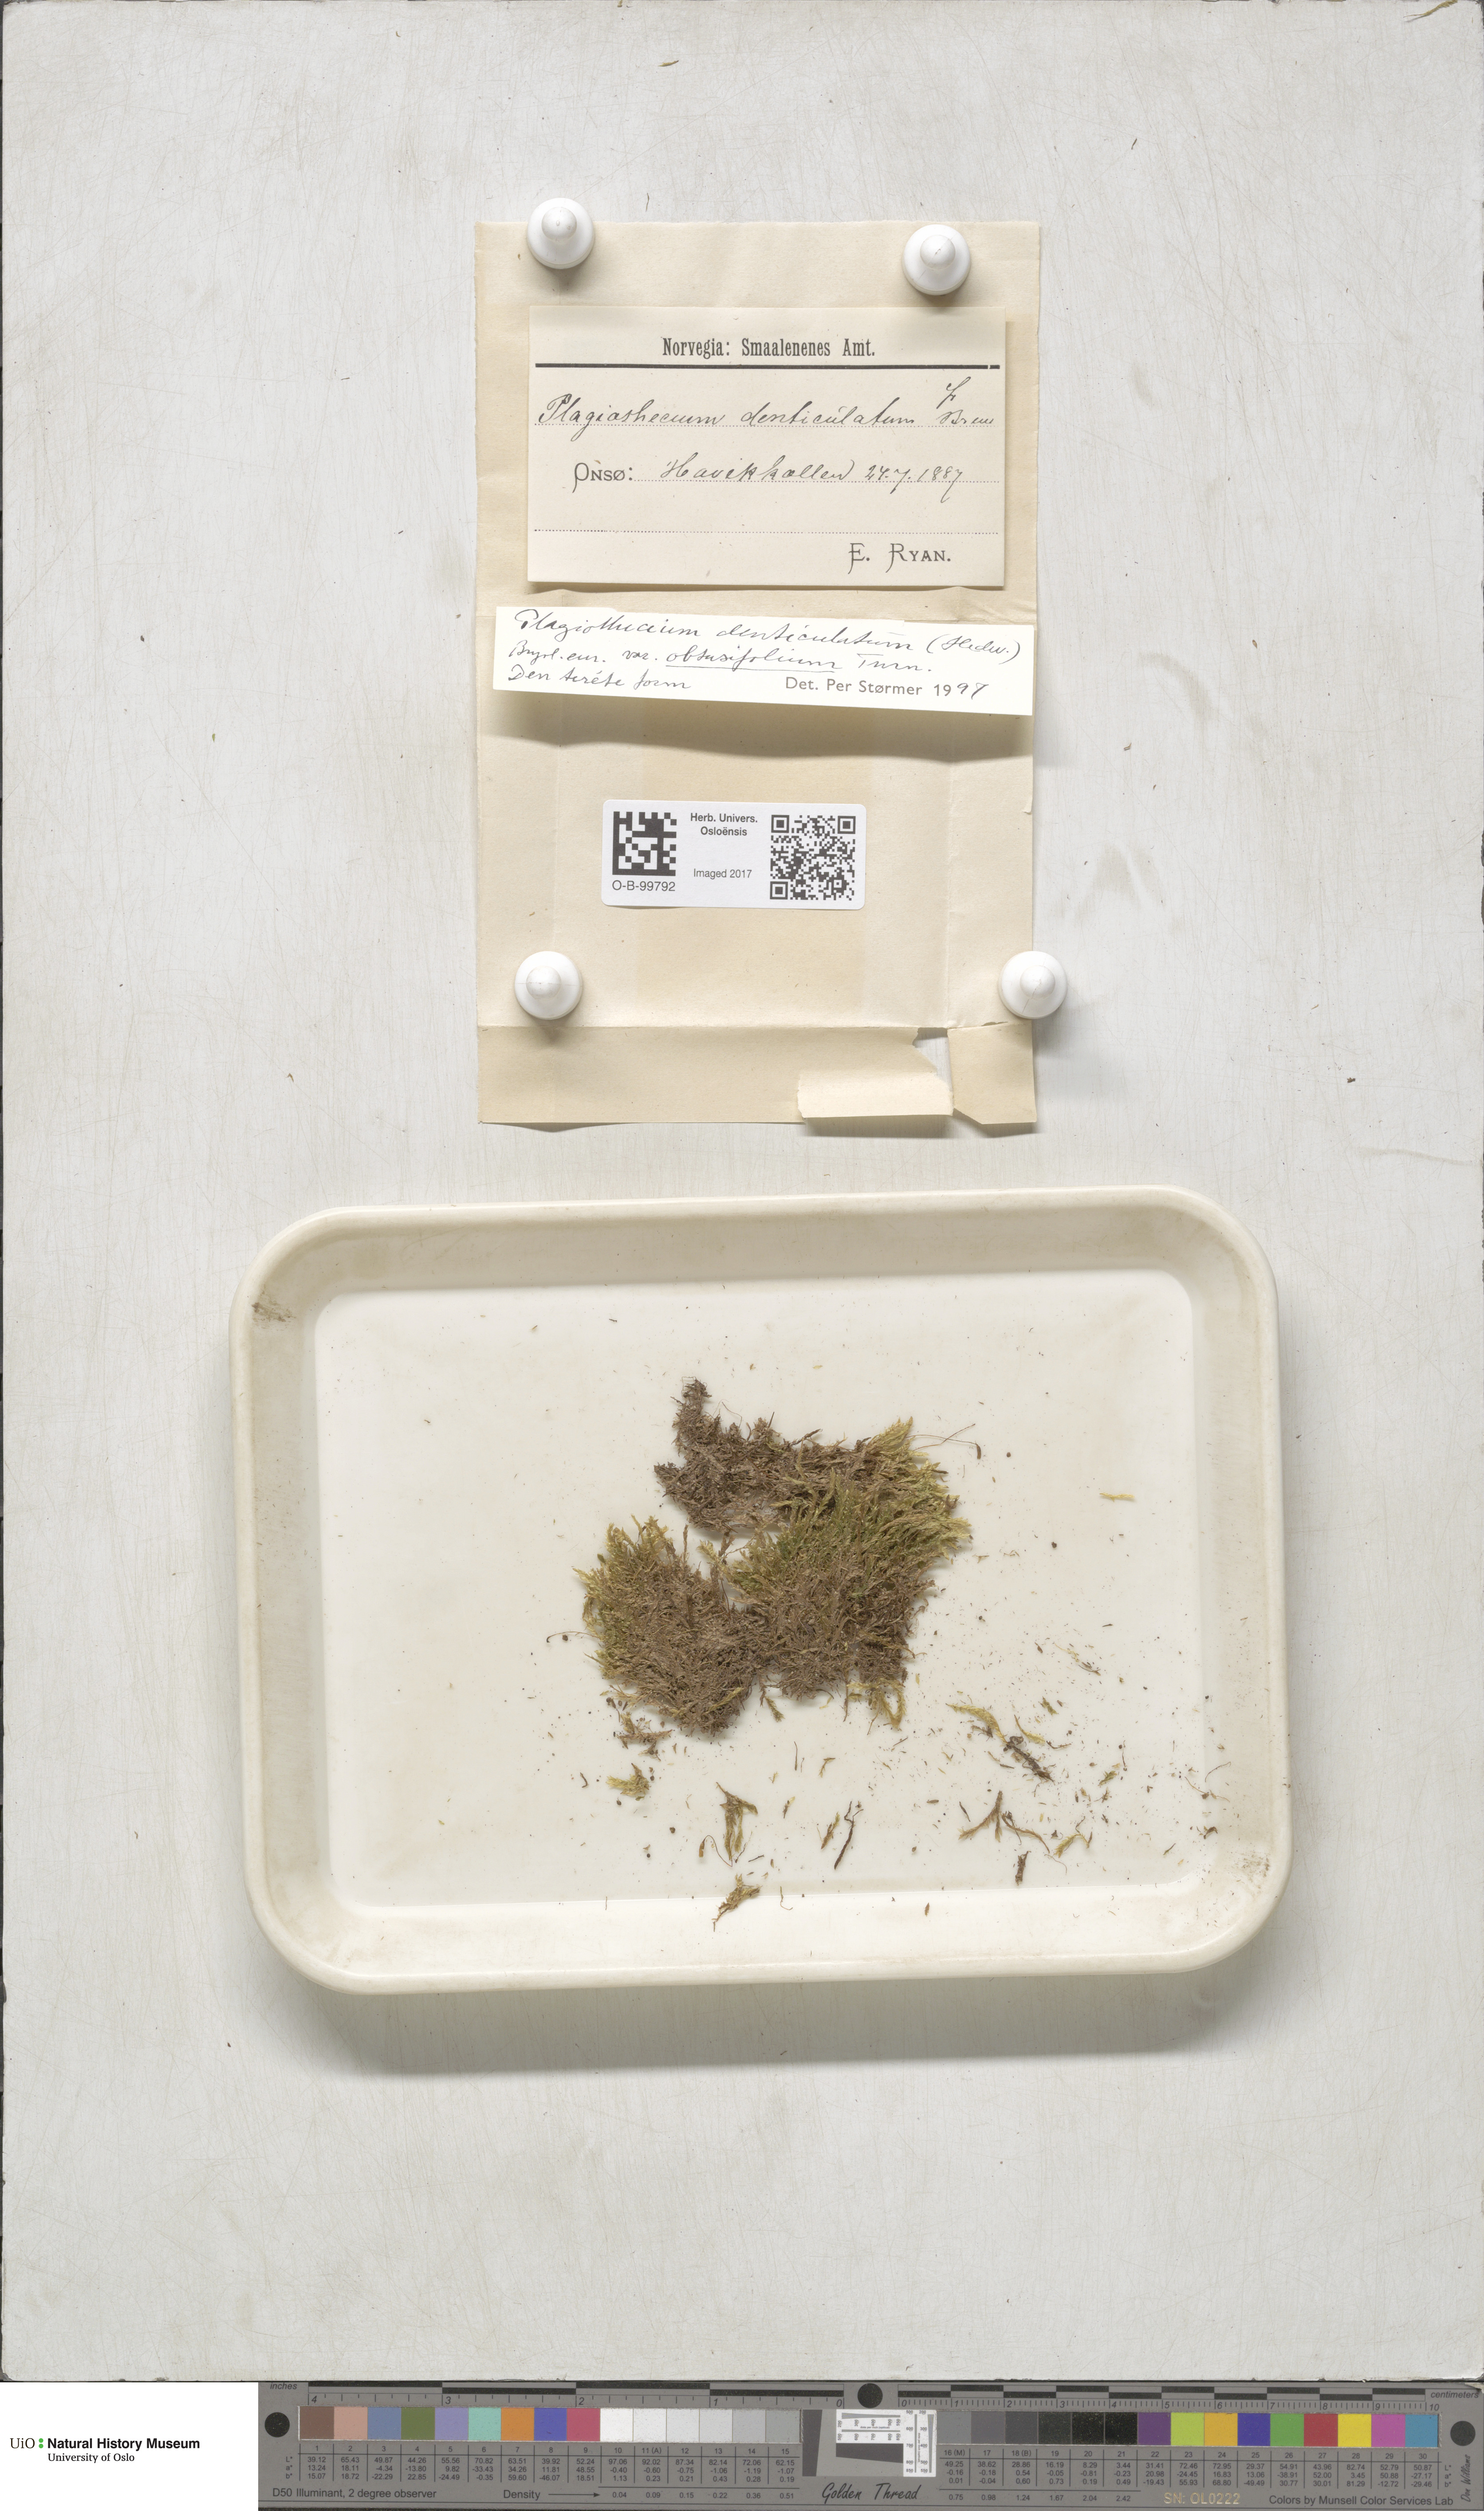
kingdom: Plantae
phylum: Bryophyta
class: Bryopsida
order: Hypnales
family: Plagiotheciaceae
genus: Plagiothecium
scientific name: Plagiothecium denticulatum
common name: Dented silk moss
